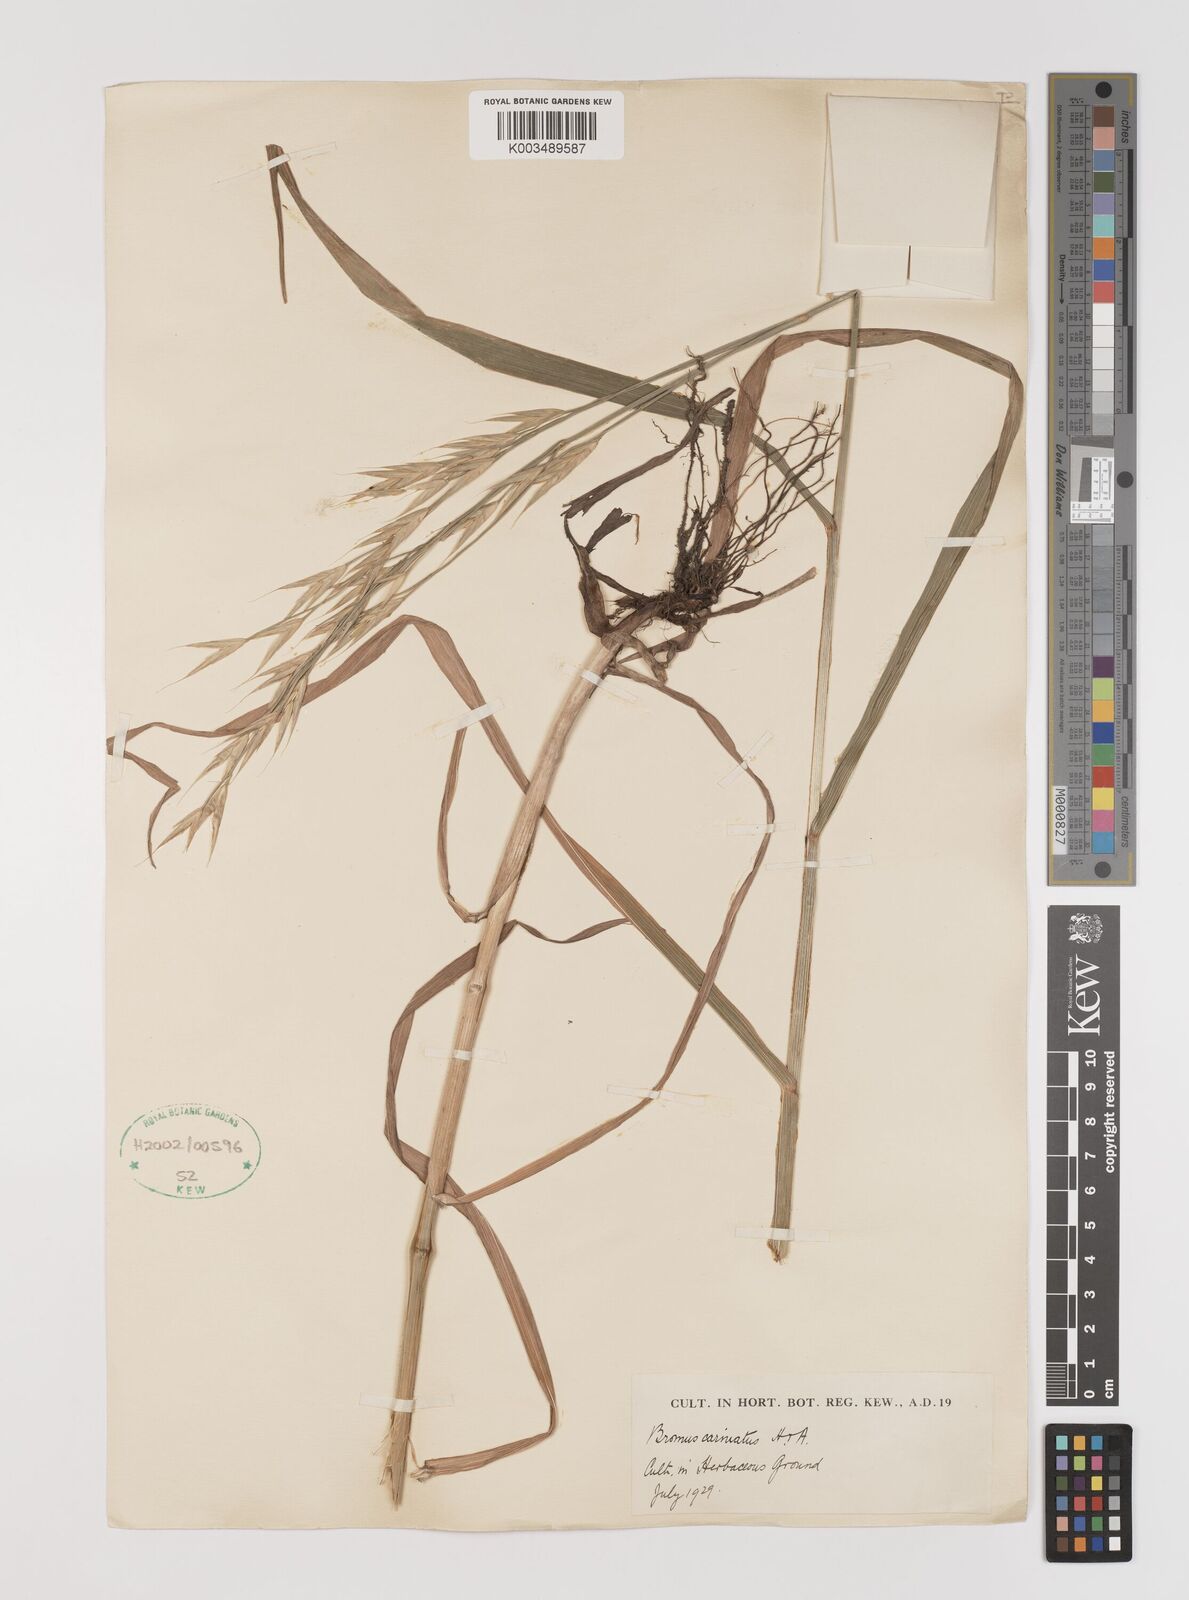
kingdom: Plantae
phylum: Tracheophyta
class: Liliopsida
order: Poales
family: Poaceae
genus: Bromus
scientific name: Bromus carinatus
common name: Mountain brome
